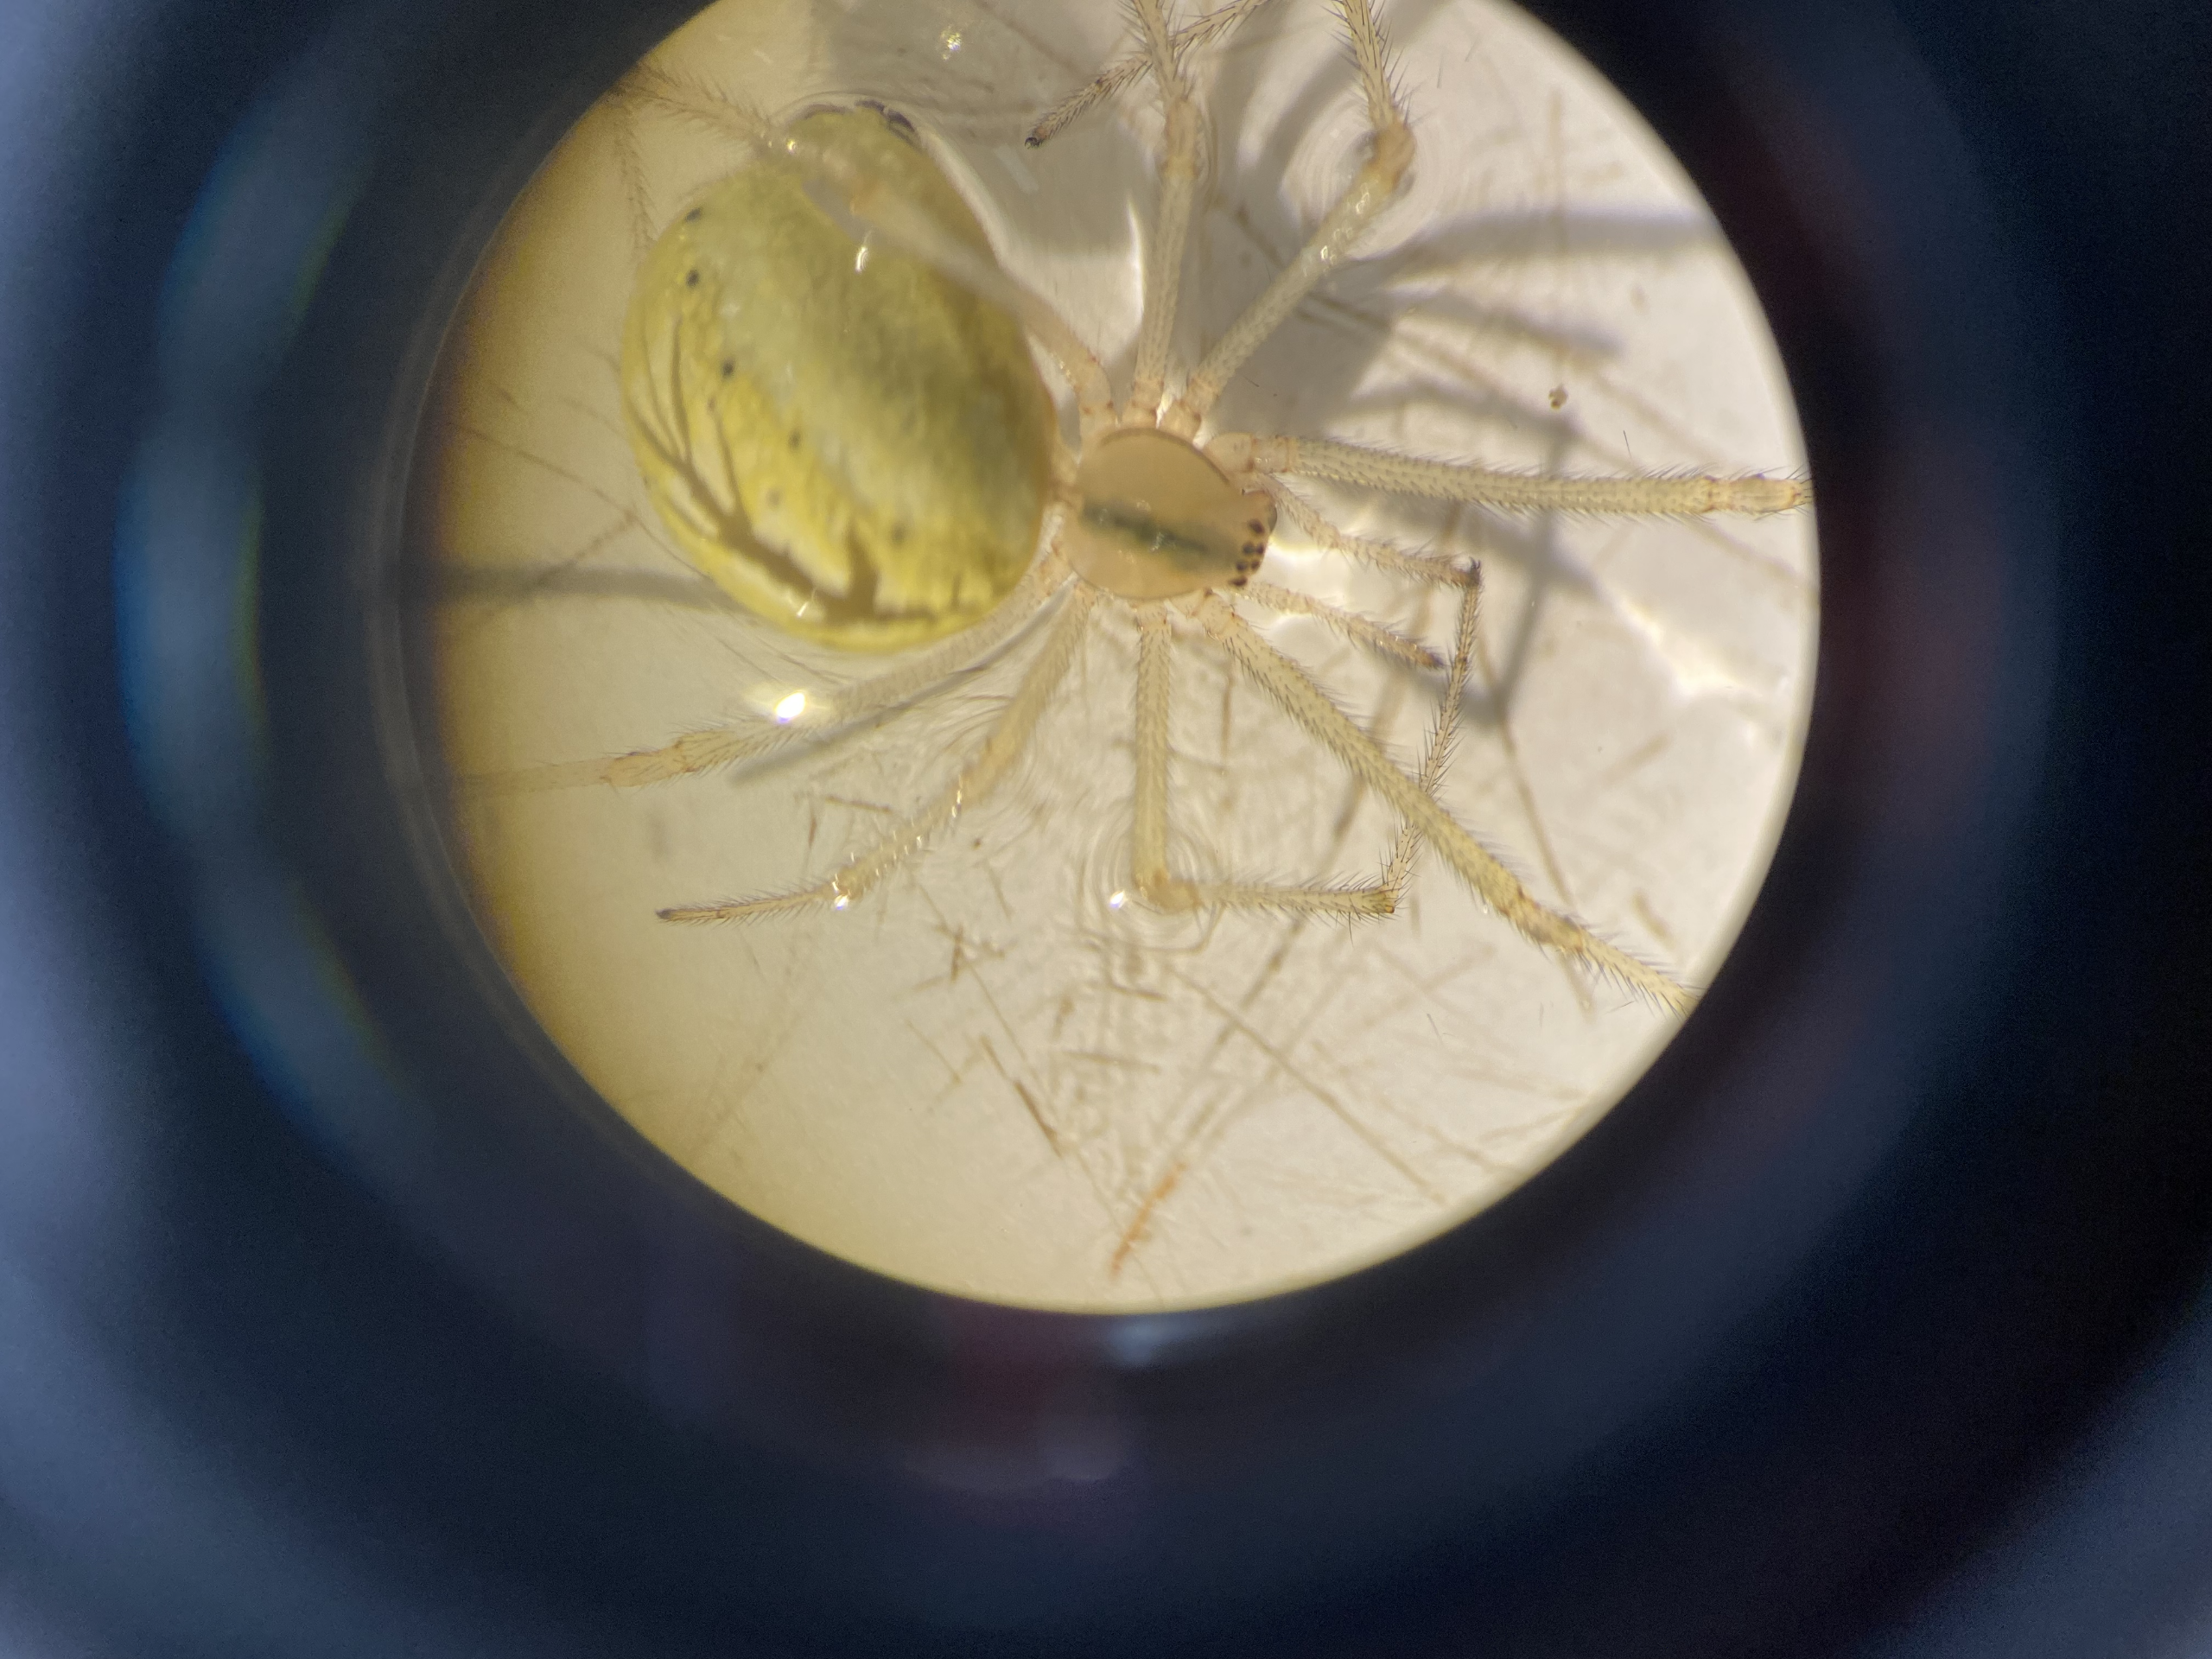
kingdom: Animalia
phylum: Arthropoda
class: Arachnida
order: Araneae
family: Theridiidae
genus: Enoplognatha
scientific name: Enoplognatha
